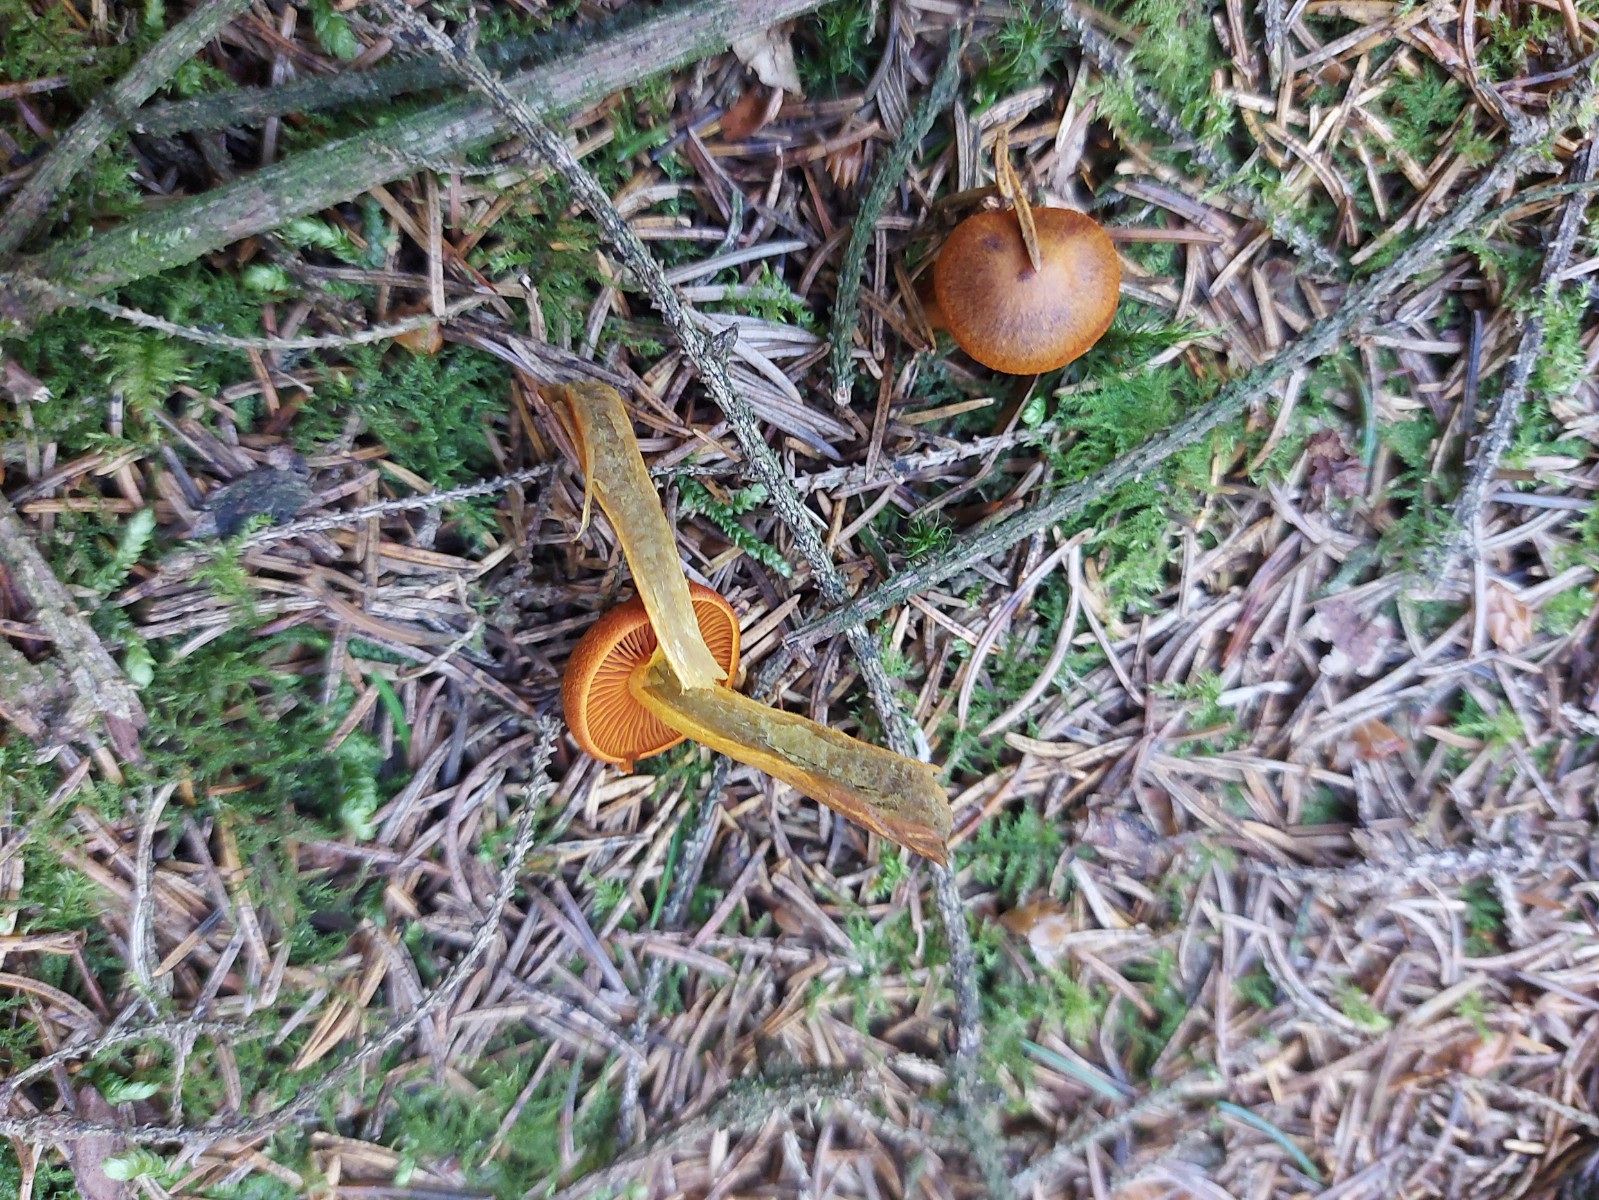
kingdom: Fungi
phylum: Basidiomycota
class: Agaricomycetes
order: Agaricales
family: Cortinariaceae
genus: Cortinarius
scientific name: Cortinarius malicorius
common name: grønkødet slørhat
